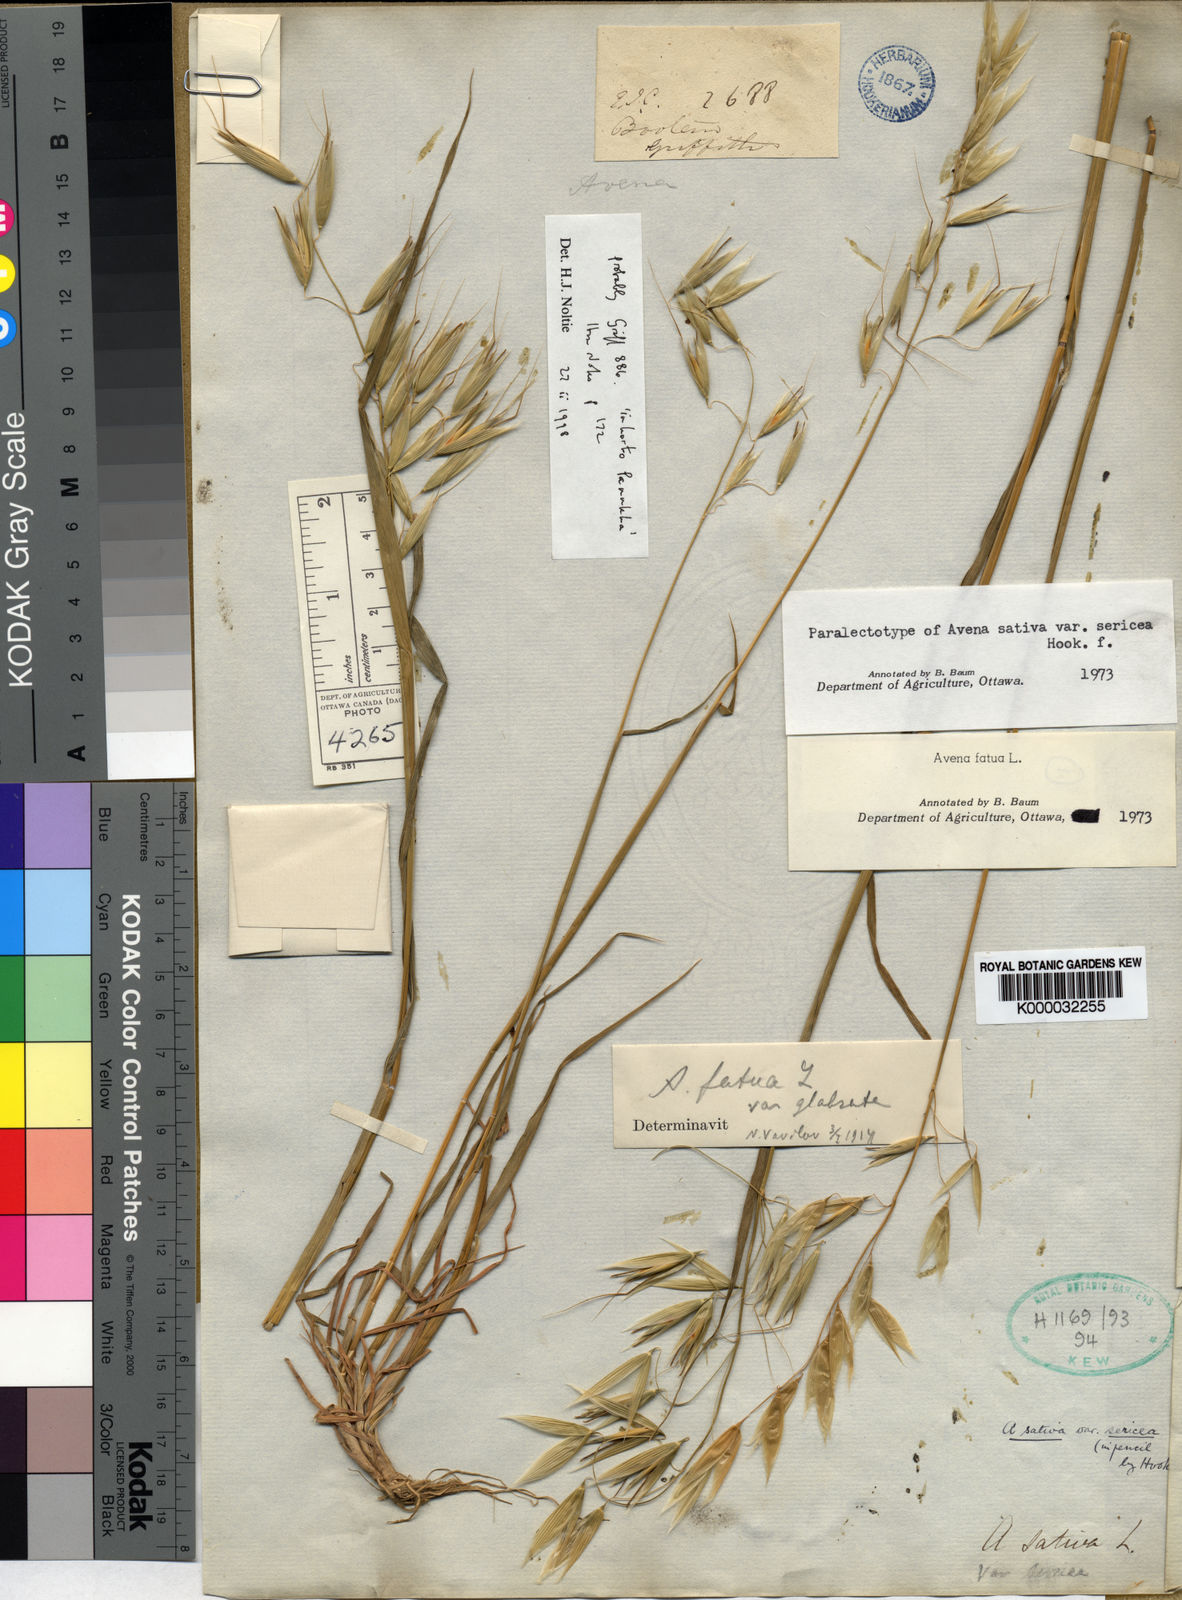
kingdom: Plantae
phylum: Tracheophyta
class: Liliopsida
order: Poales
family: Poaceae
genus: Avena
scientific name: Avena fatua
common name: Wild oat
